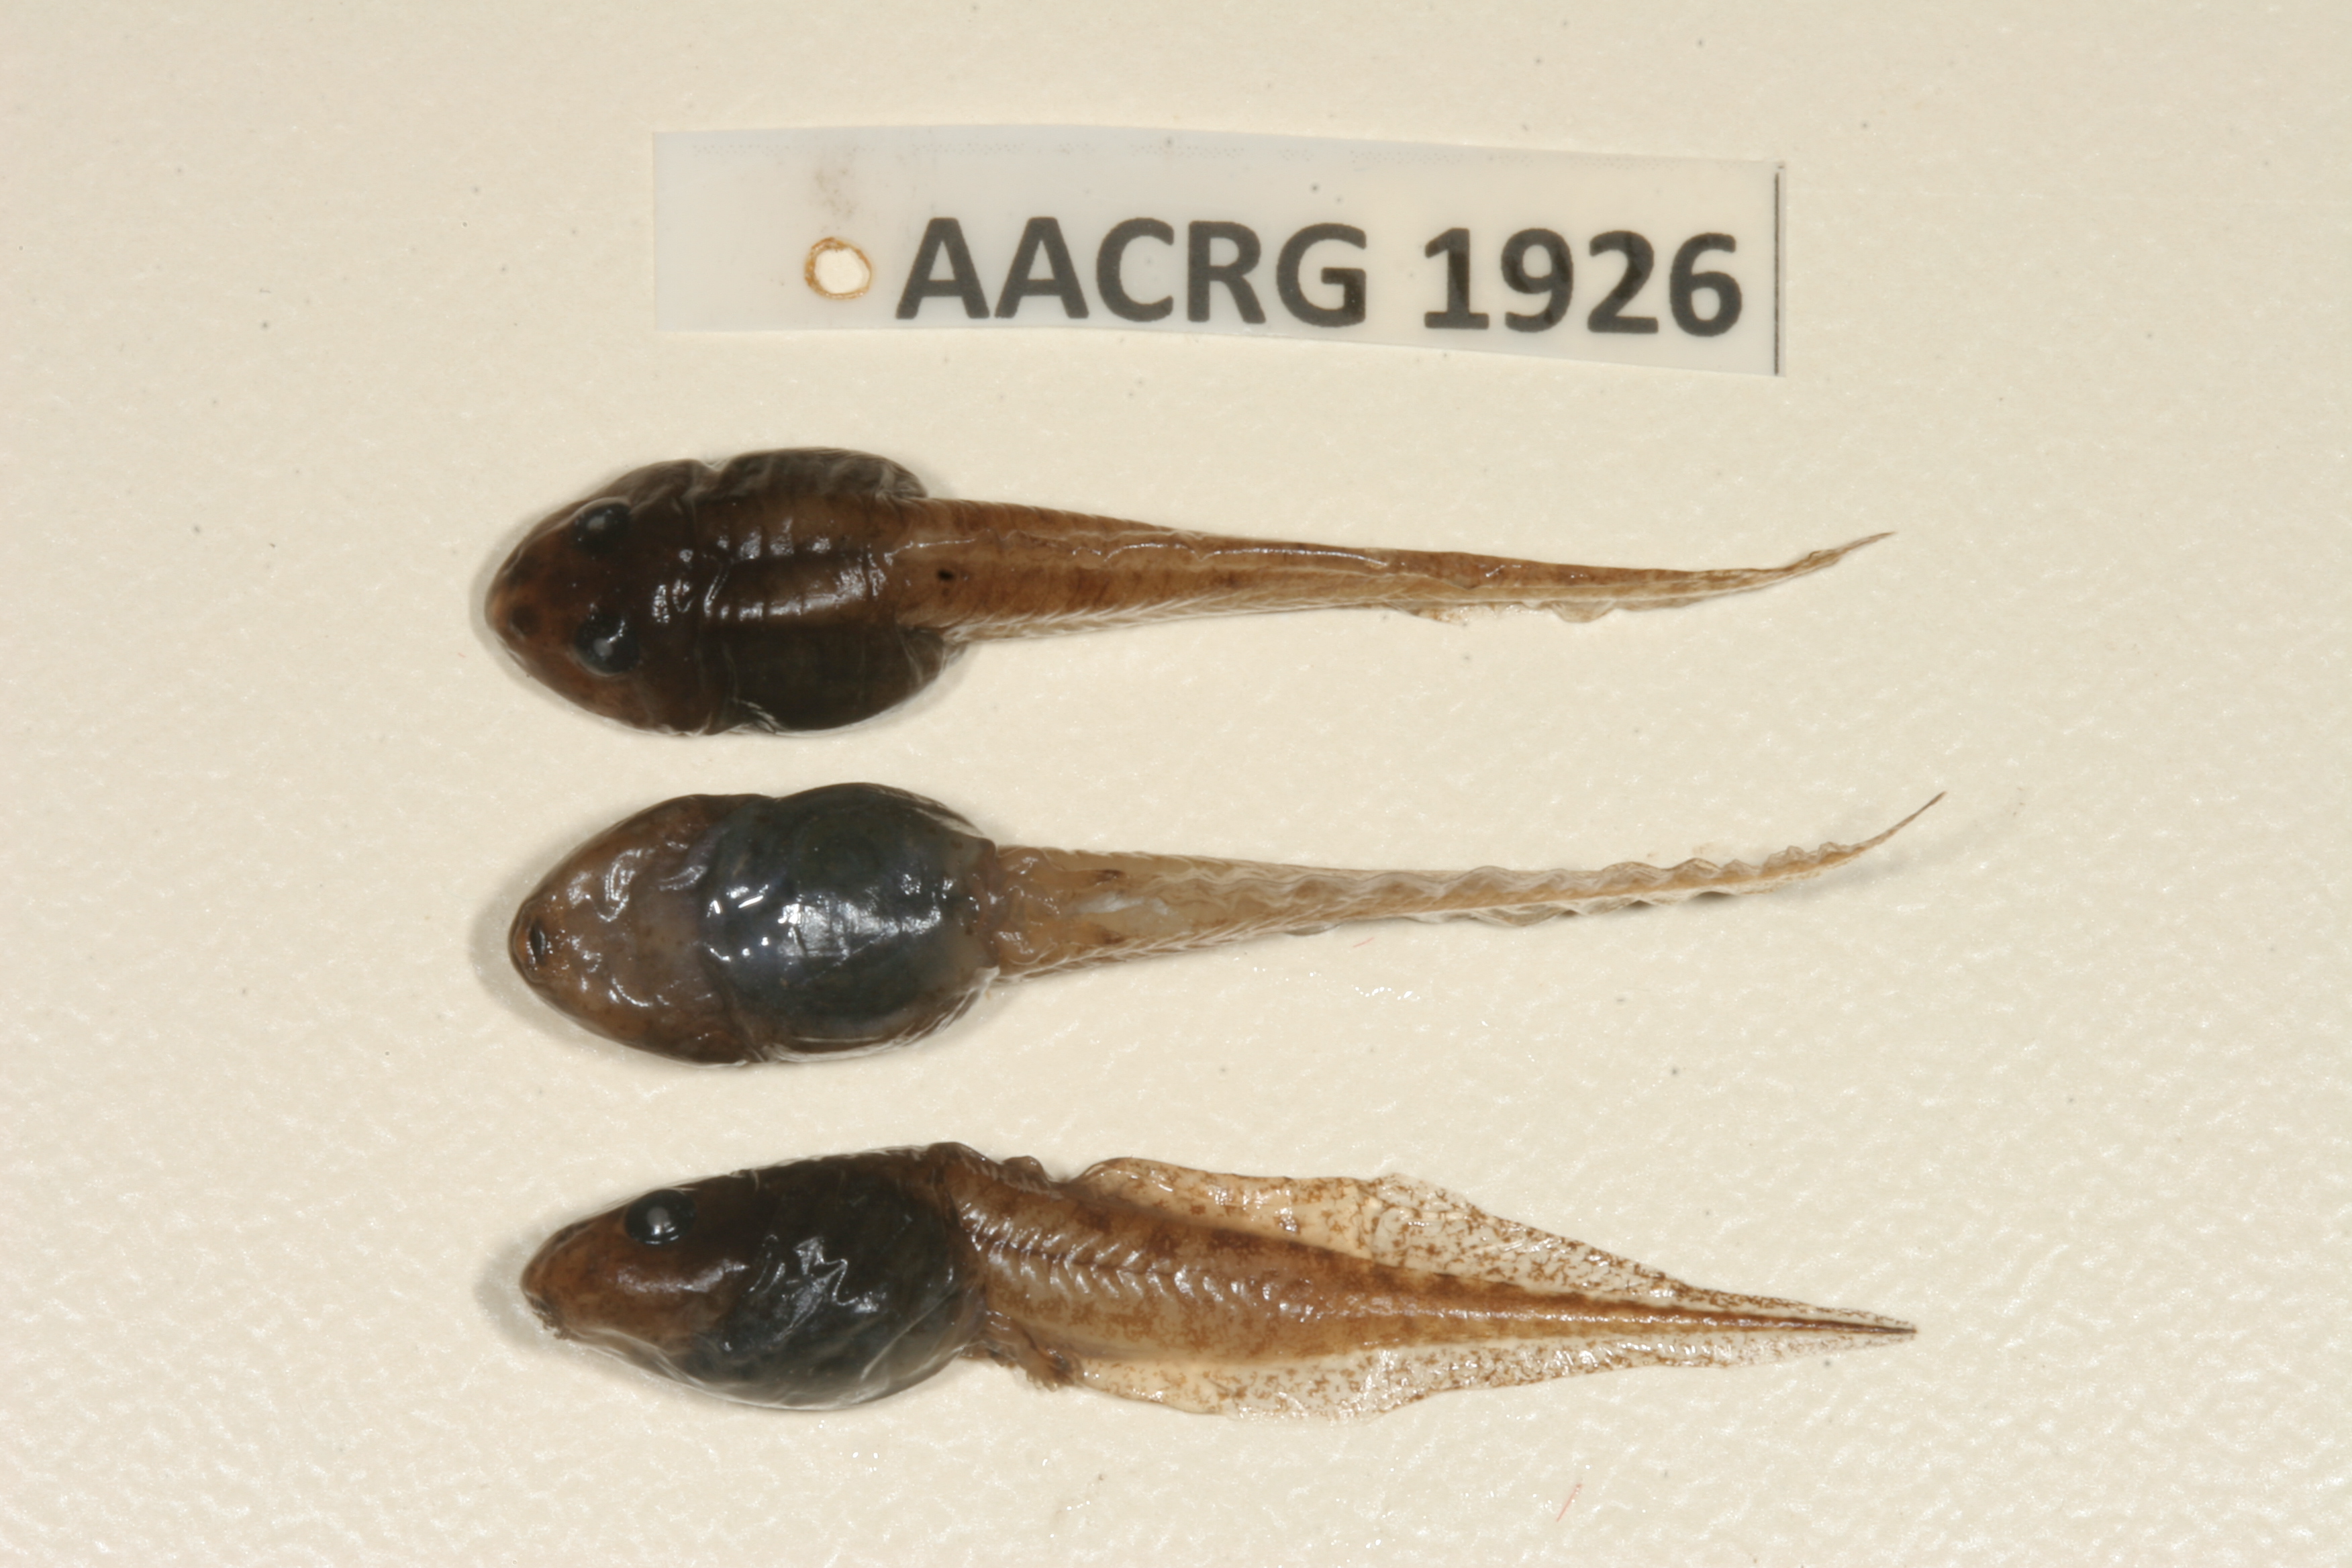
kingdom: Animalia
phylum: Chordata
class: Amphibia
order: Anura
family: Ptychadenidae
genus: Ptychadena
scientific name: Ptychadena mossambica
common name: Mozambique ridged frog
